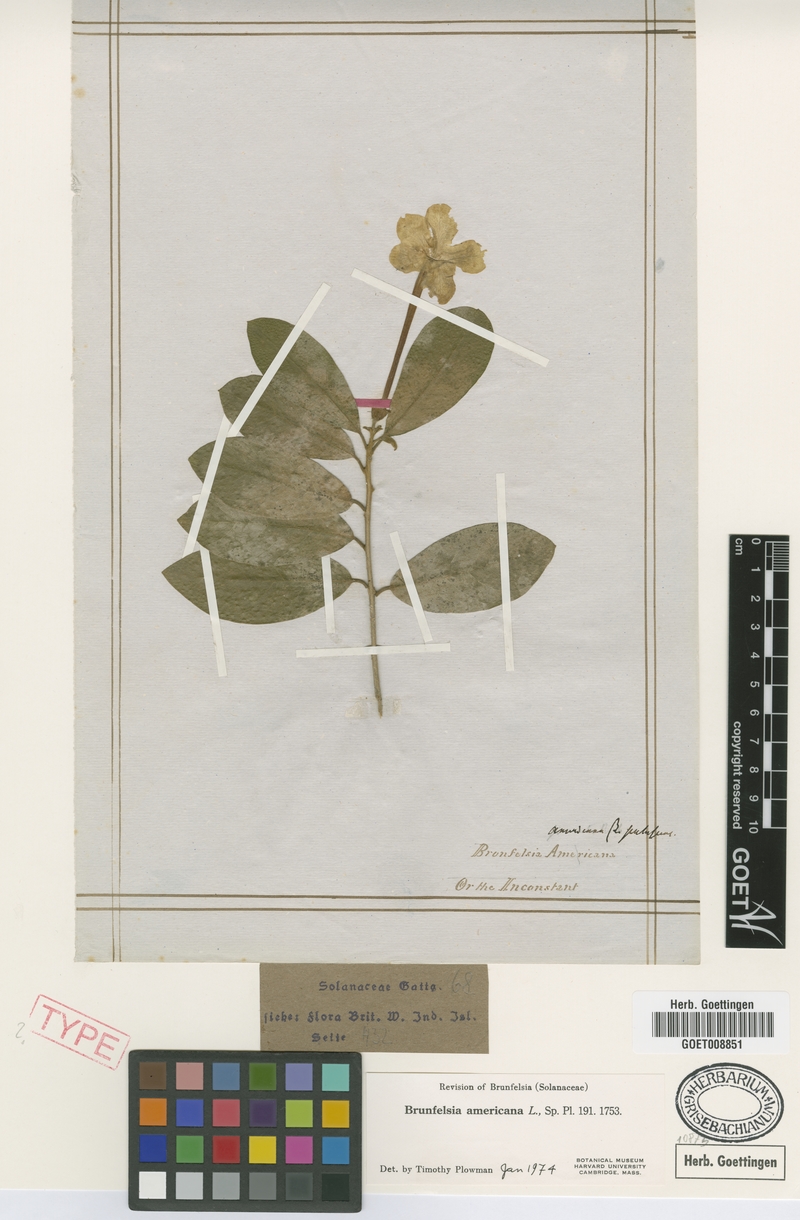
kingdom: Plantae
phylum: Tracheophyta
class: Magnoliopsida
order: Solanales
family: Solanaceae
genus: Brunfelsia
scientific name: Brunfelsia americana
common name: Lady-of-the-night
